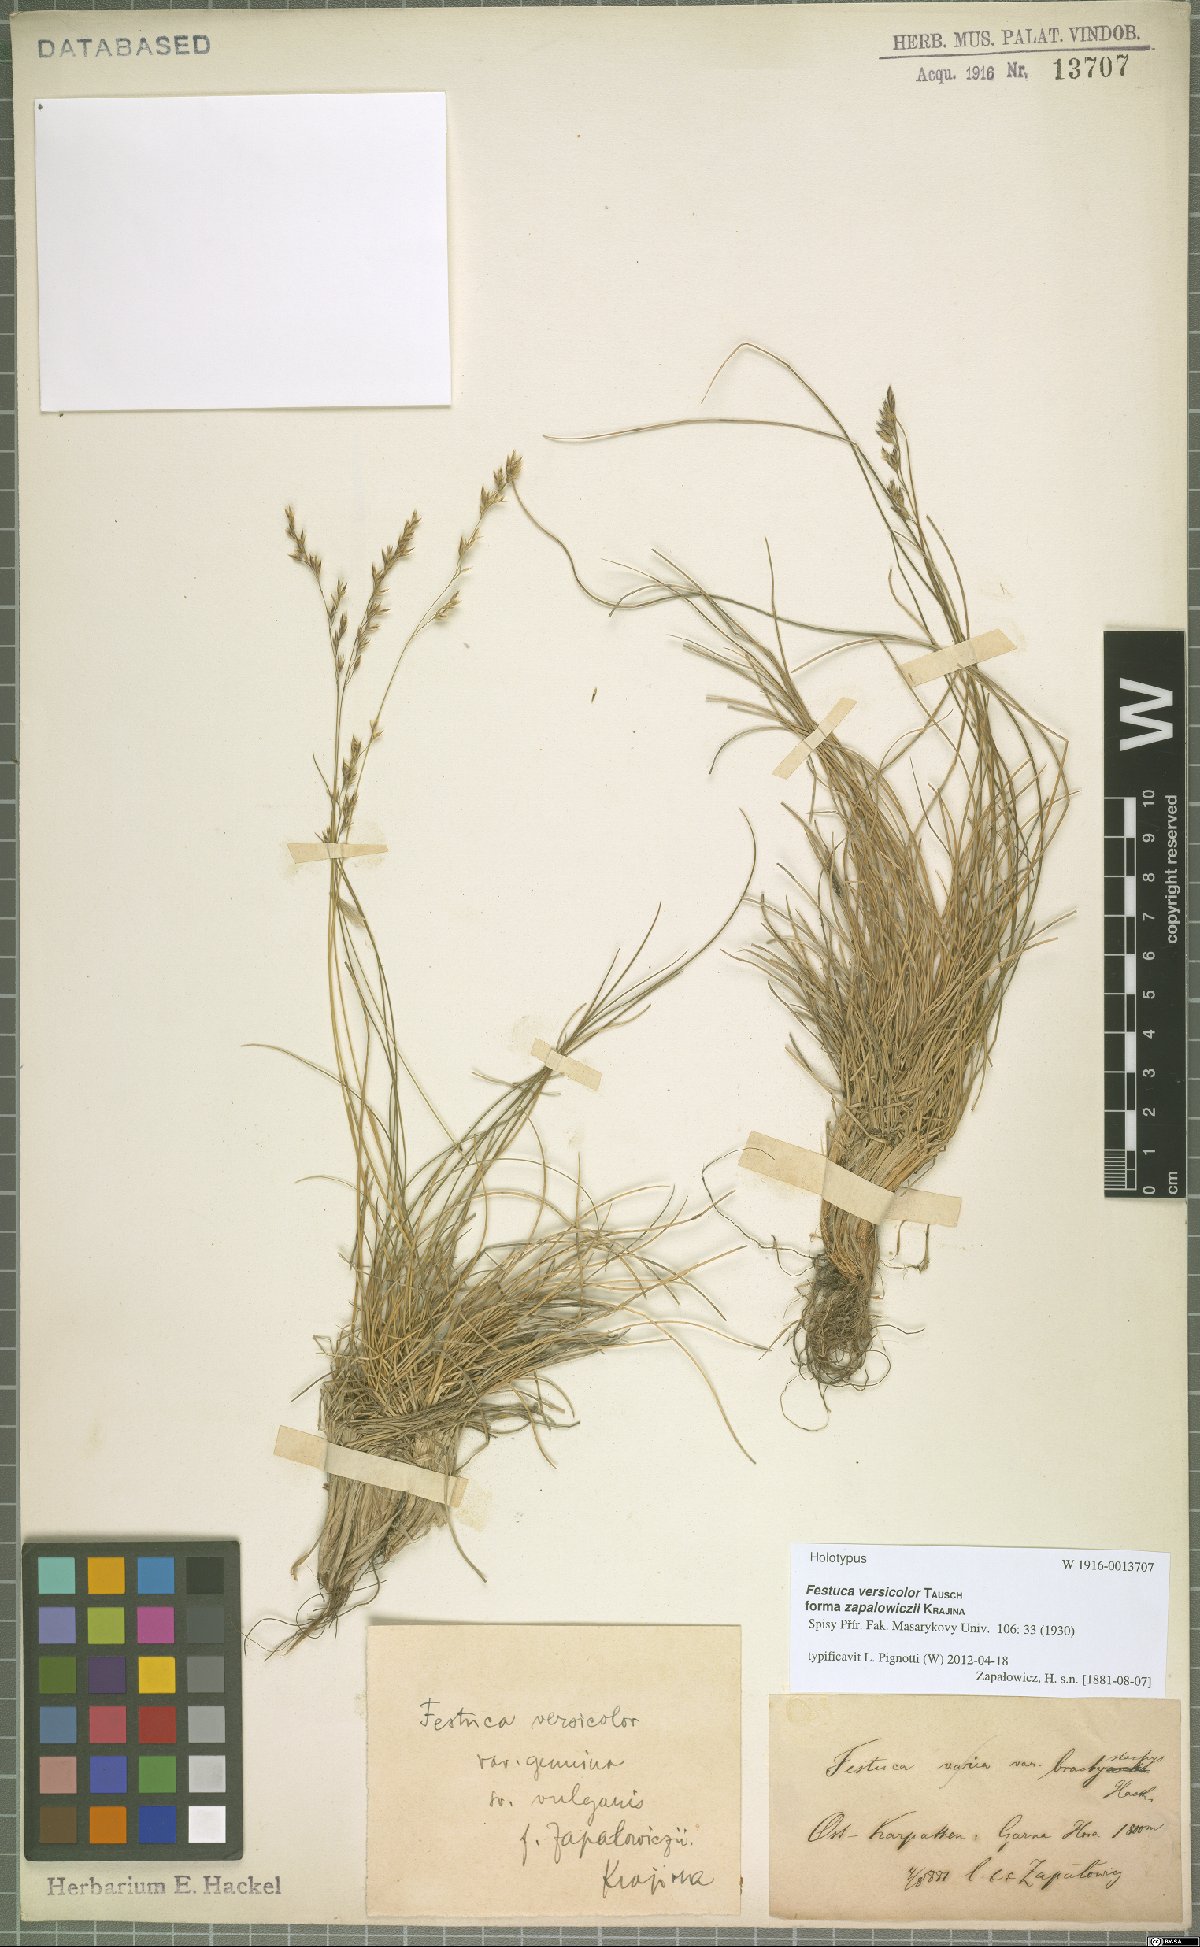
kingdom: Plantae
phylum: Tracheophyta
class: Liliopsida
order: Poales
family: Poaceae
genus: Festuca
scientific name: Festuca versicolor
